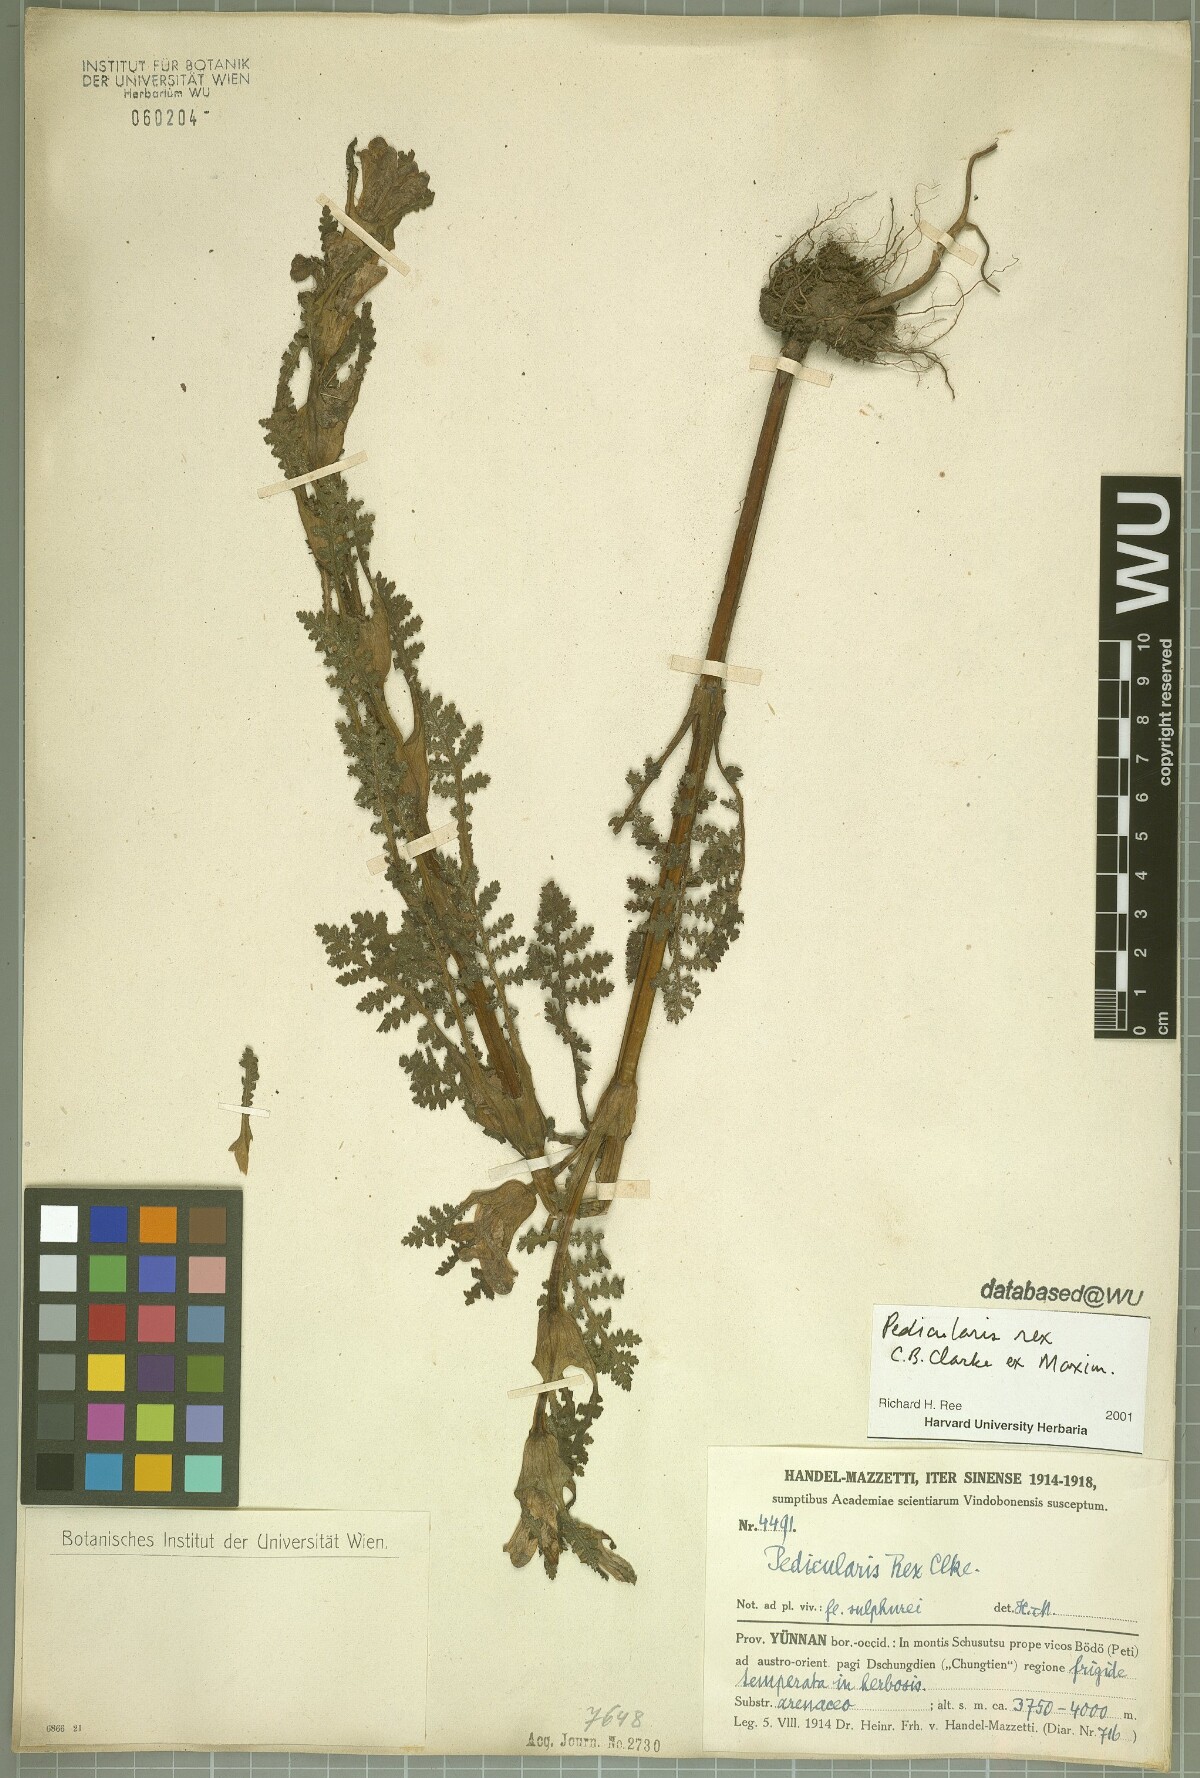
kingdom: Plantae
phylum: Tracheophyta
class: Magnoliopsida
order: Lamiales
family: Orobanchaceae
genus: Pedicularis
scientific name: Pedicularis rex
